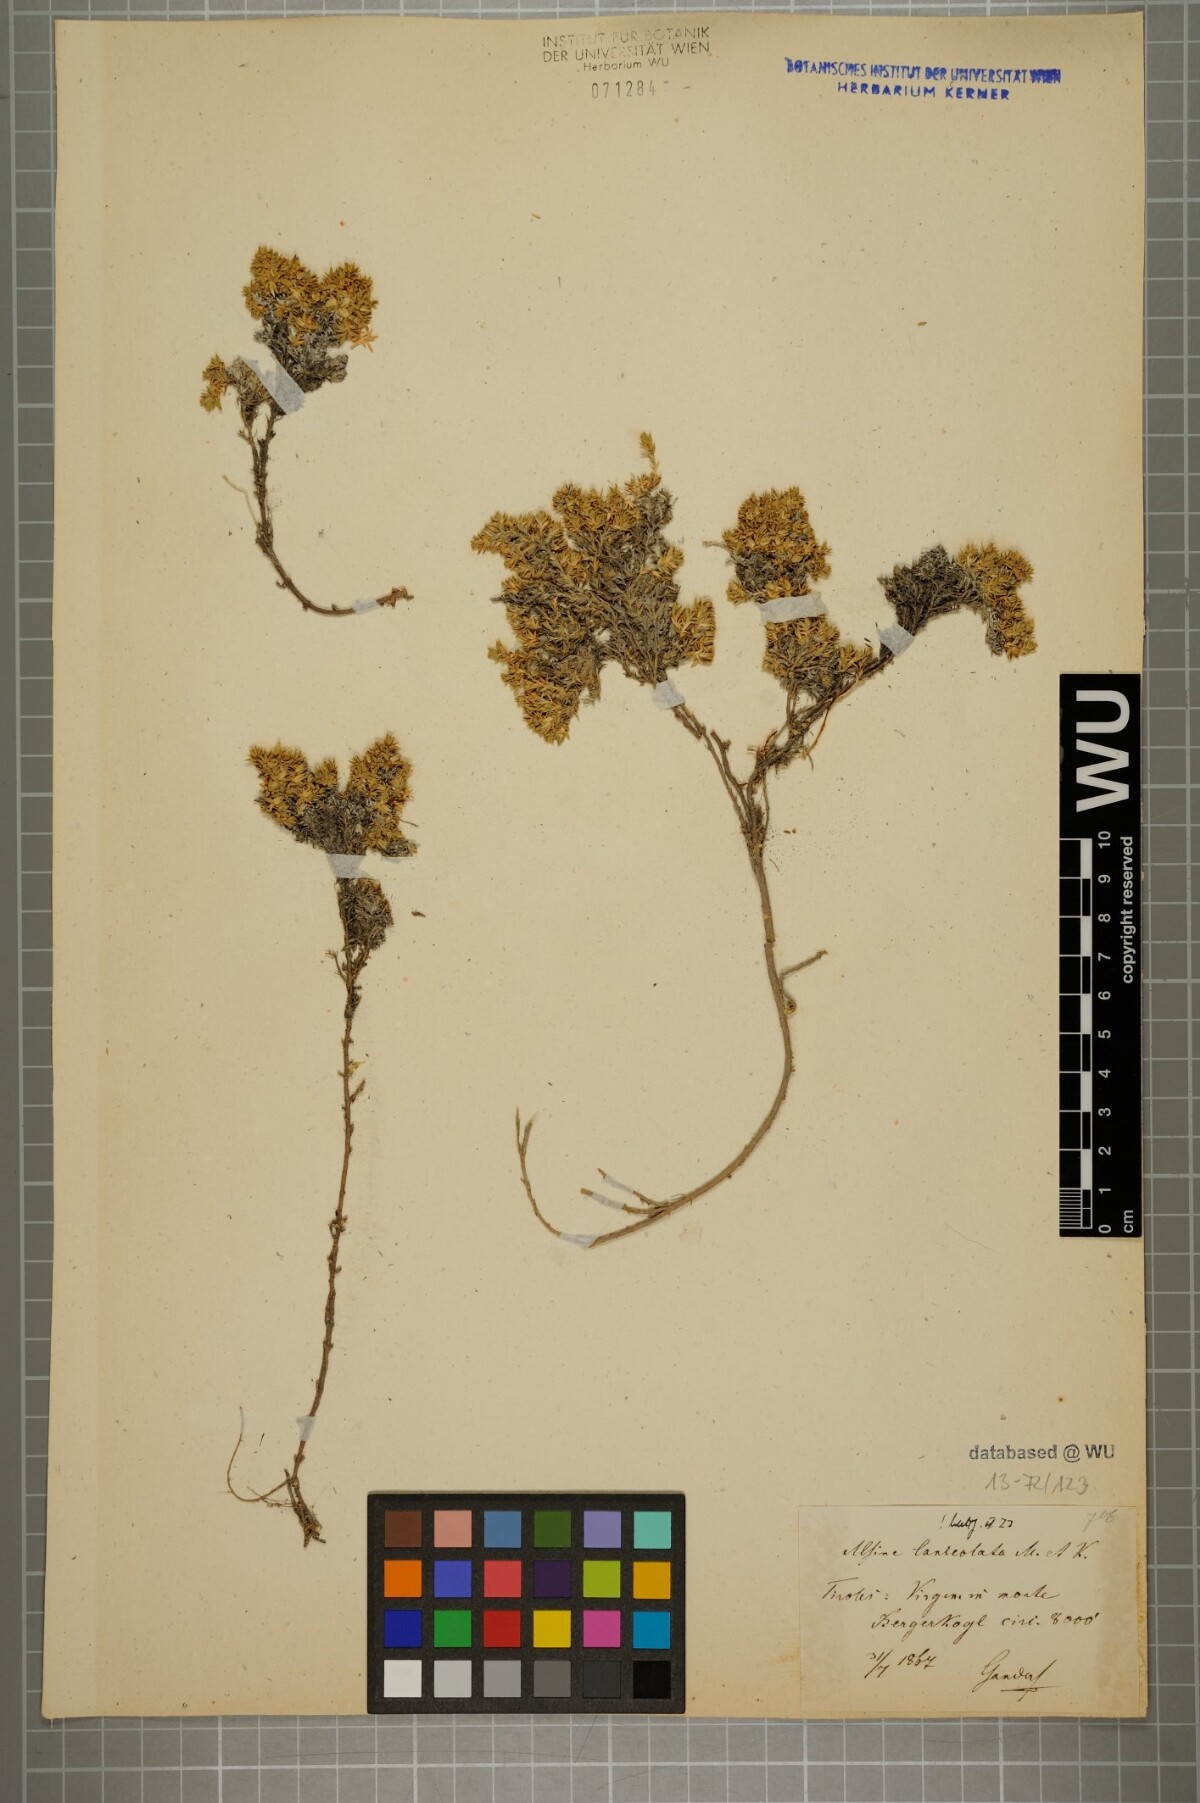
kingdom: Plantae
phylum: Tracheophyta
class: Magnoliopsida
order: Caryophyllales
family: Caryophyllaceae
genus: Facchinia
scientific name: Facchinia rupestris
